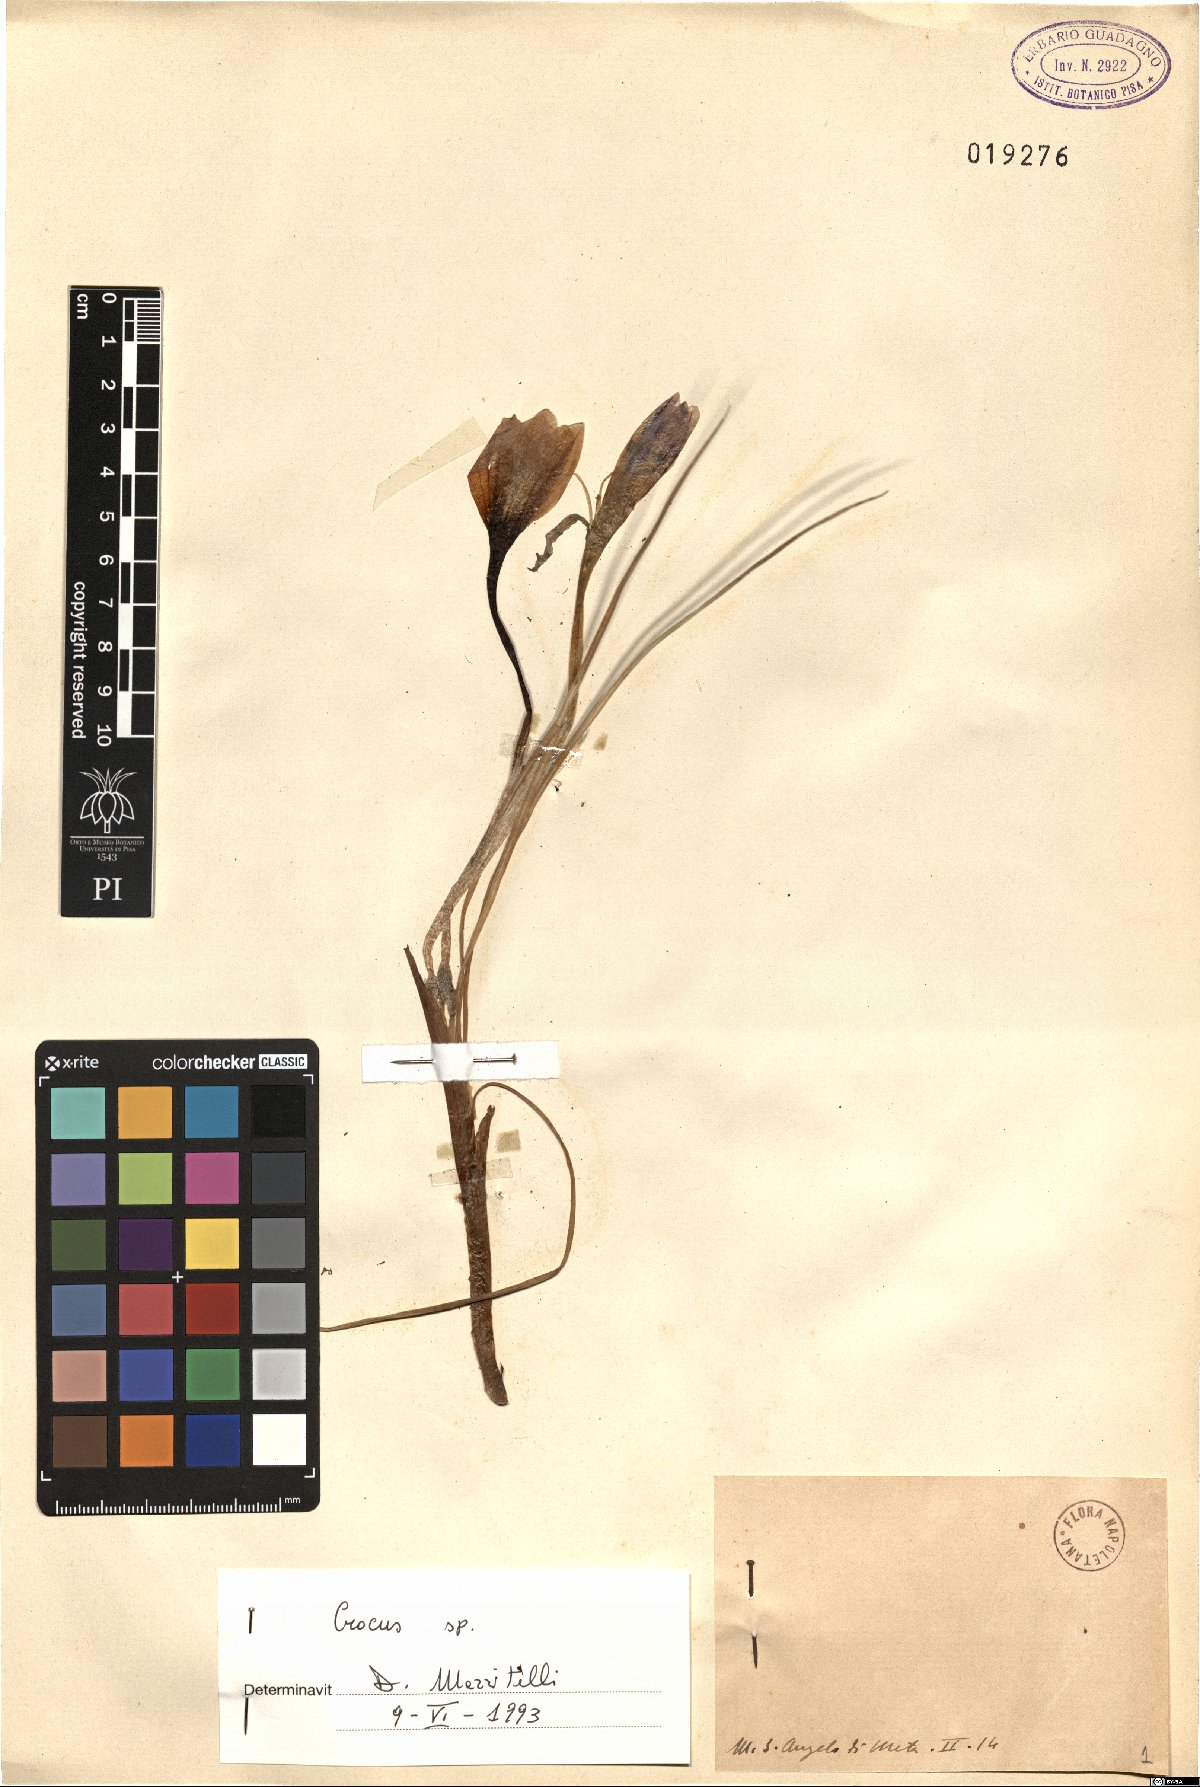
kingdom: Plantae
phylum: Tracheophyta
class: Liliopsida
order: Asparagales
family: Iridaceae
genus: Crocus
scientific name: Crocus
